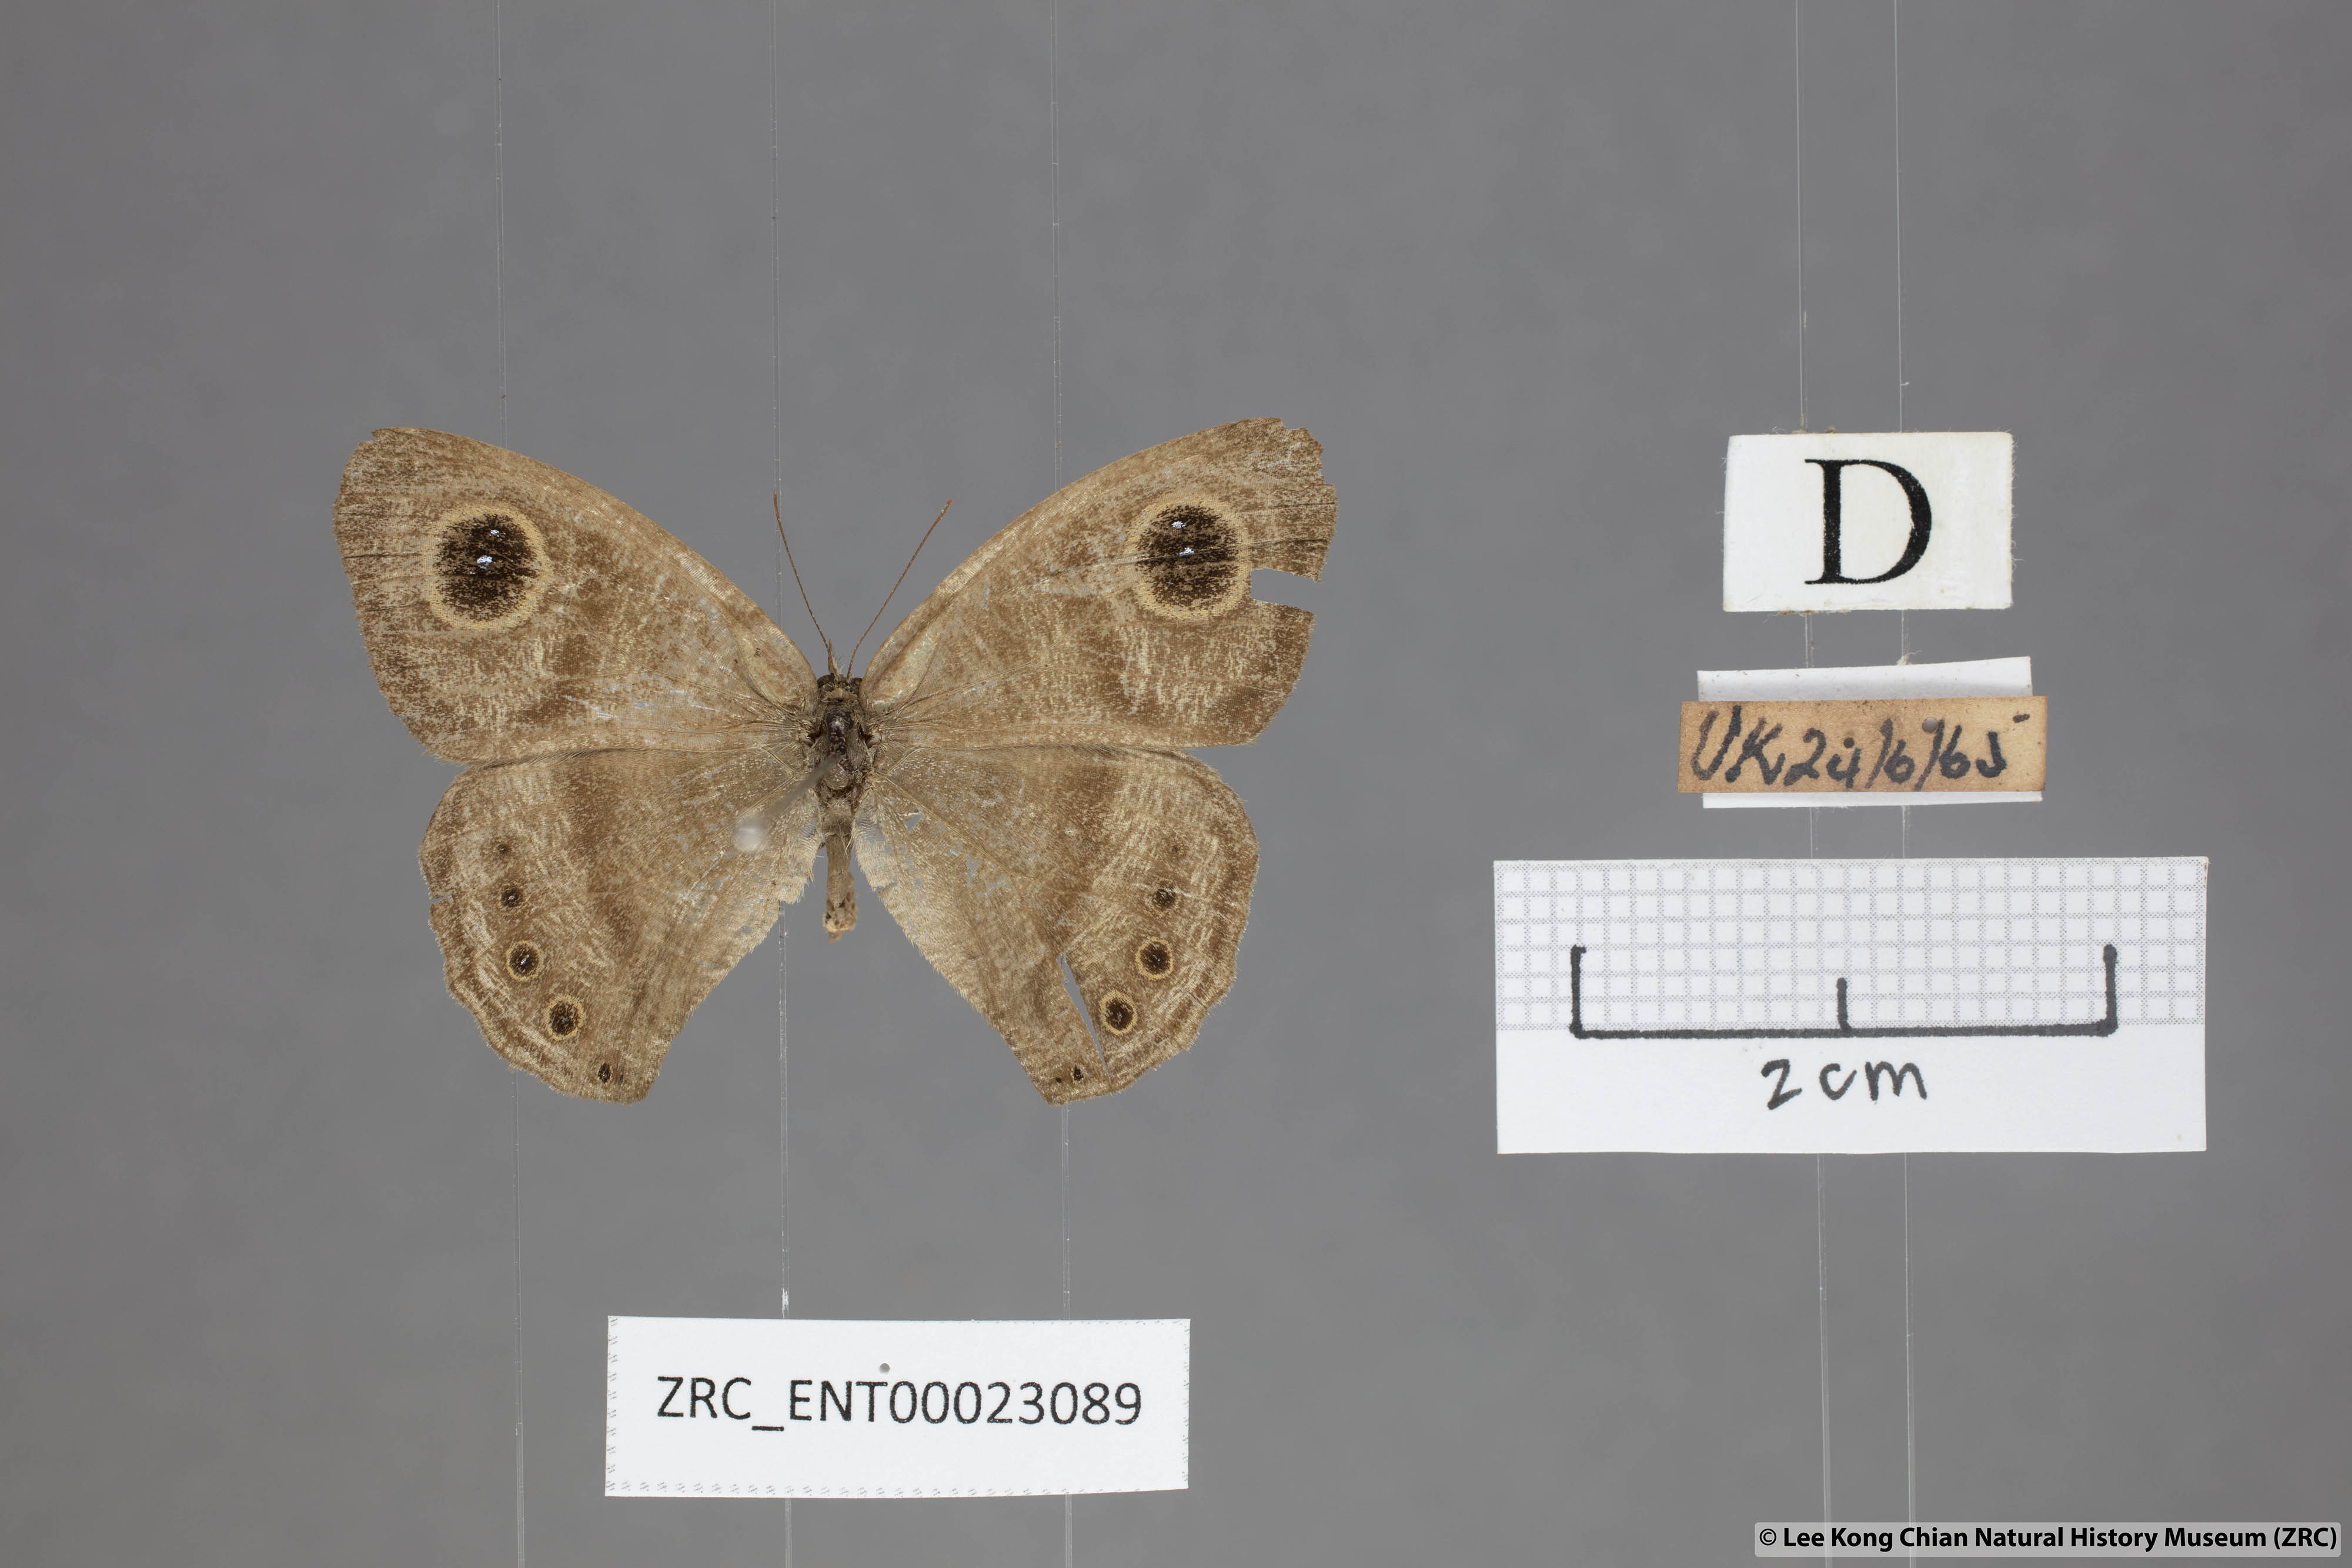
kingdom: Animalia
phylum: Arthropoda
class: Insecta
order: Lepidoptera
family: Nymphalidae
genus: Ypthima
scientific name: Ypthima fasciata
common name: Malayan six-ring
